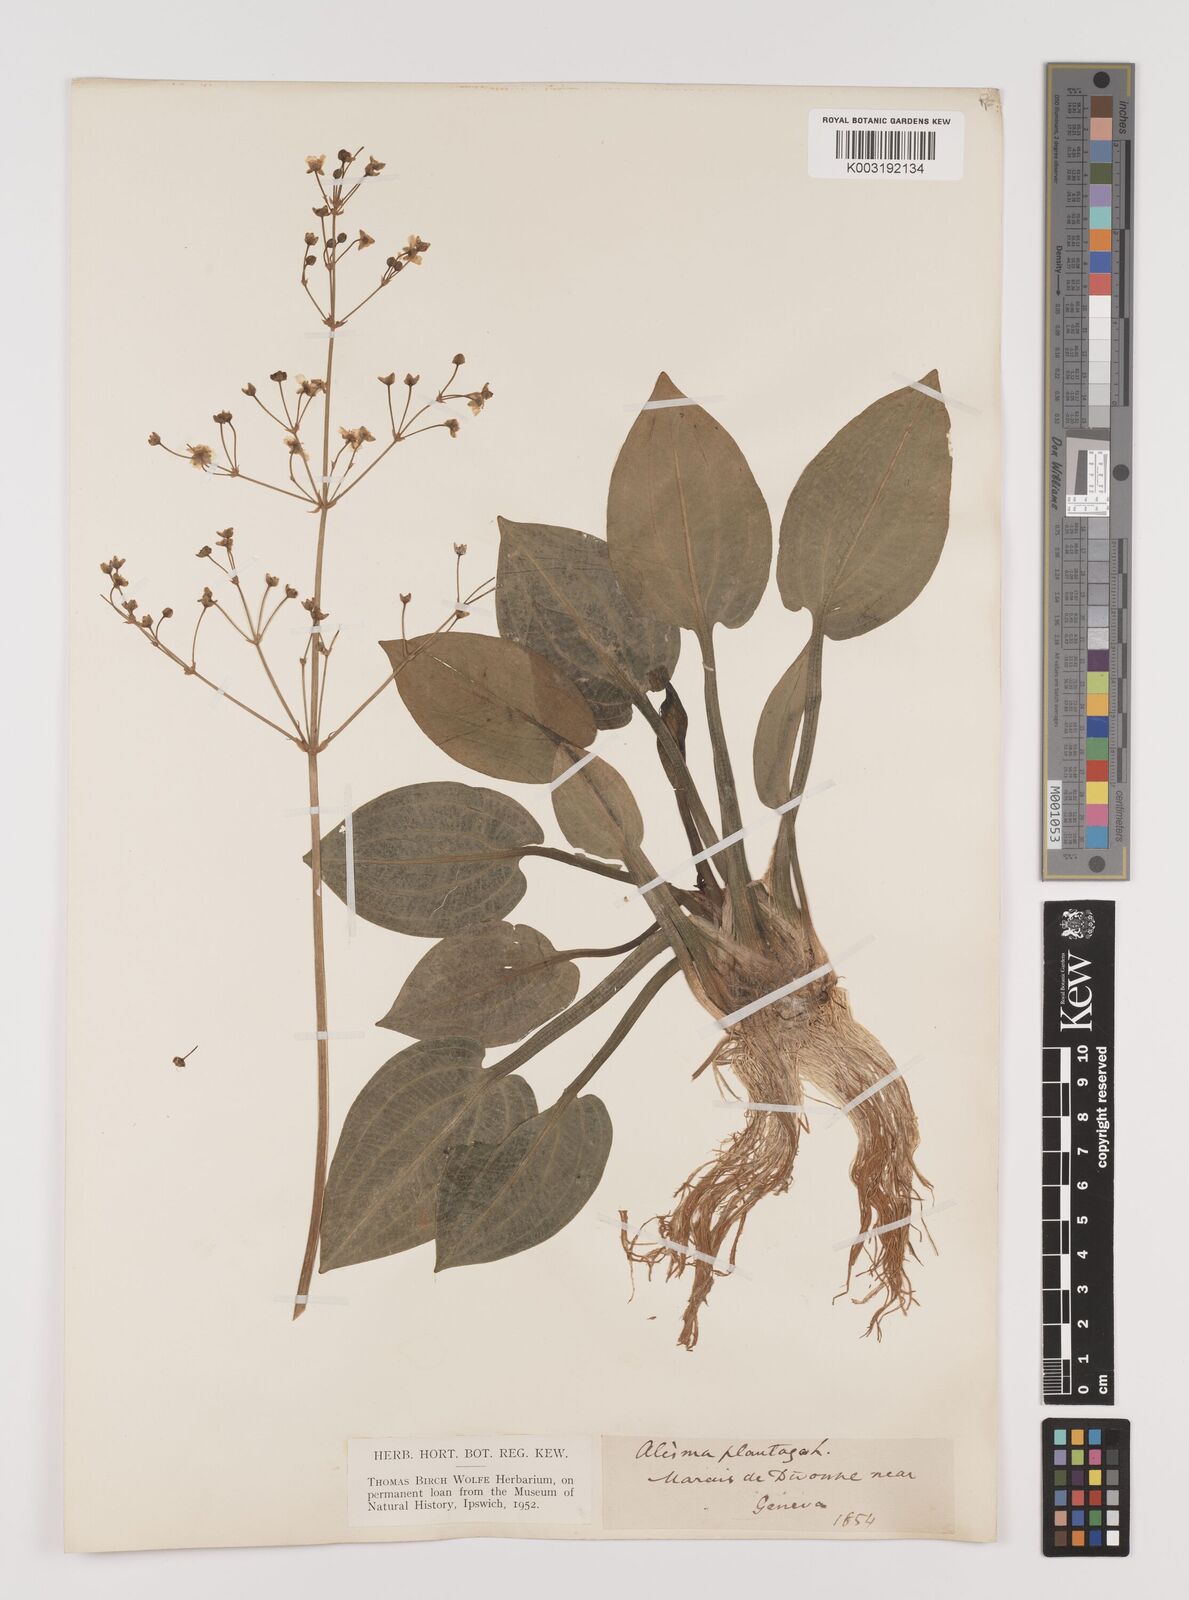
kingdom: Plantae
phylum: Tracheophyta
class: Liliopsida
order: Alismatales
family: Alismataceae
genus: Alisma
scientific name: Alisma plantago-aquatica
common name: Water-plantain
